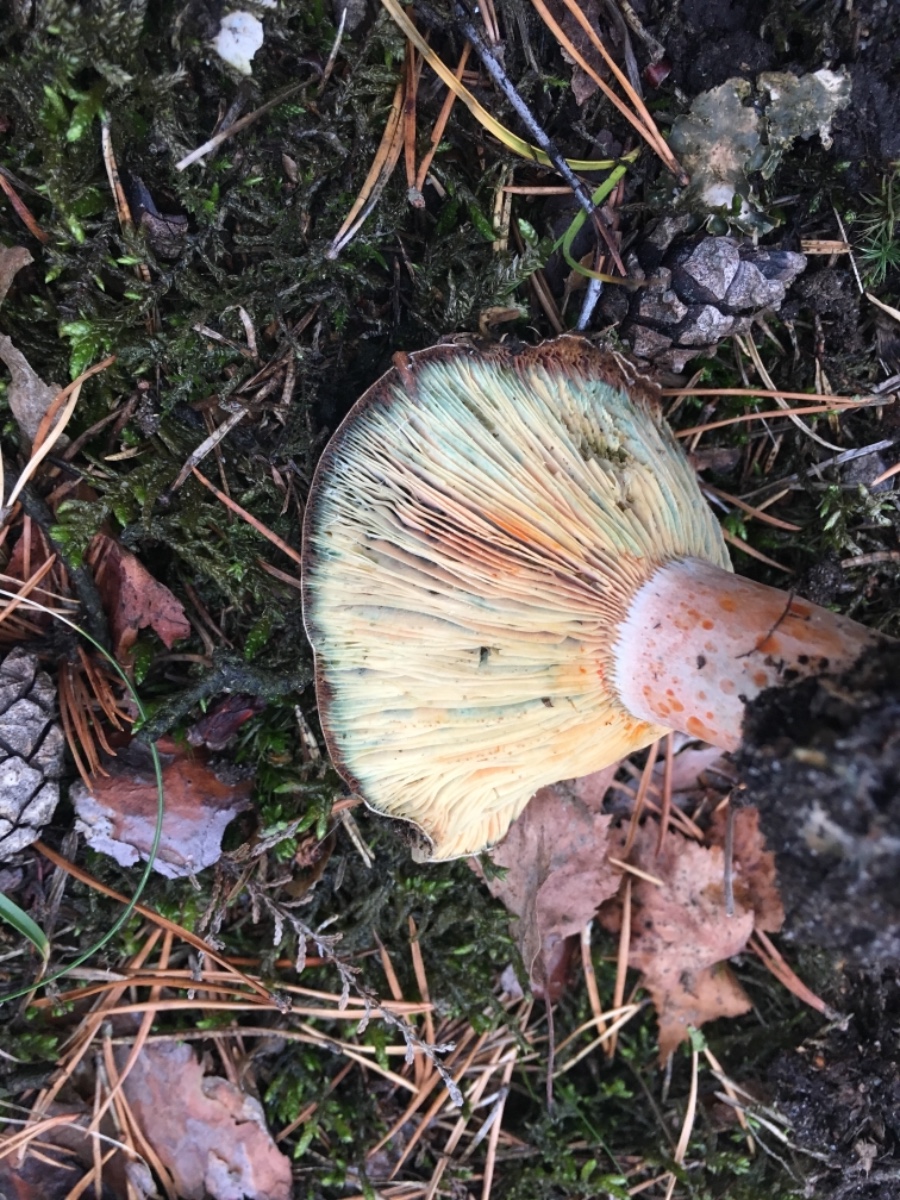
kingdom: Fungi
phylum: Basidiomycota
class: Agaricomycetes
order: Russulales
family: Russulaceae
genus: Lactarius
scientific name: Lactarius deliciosus
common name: velsmagende mælkehat
